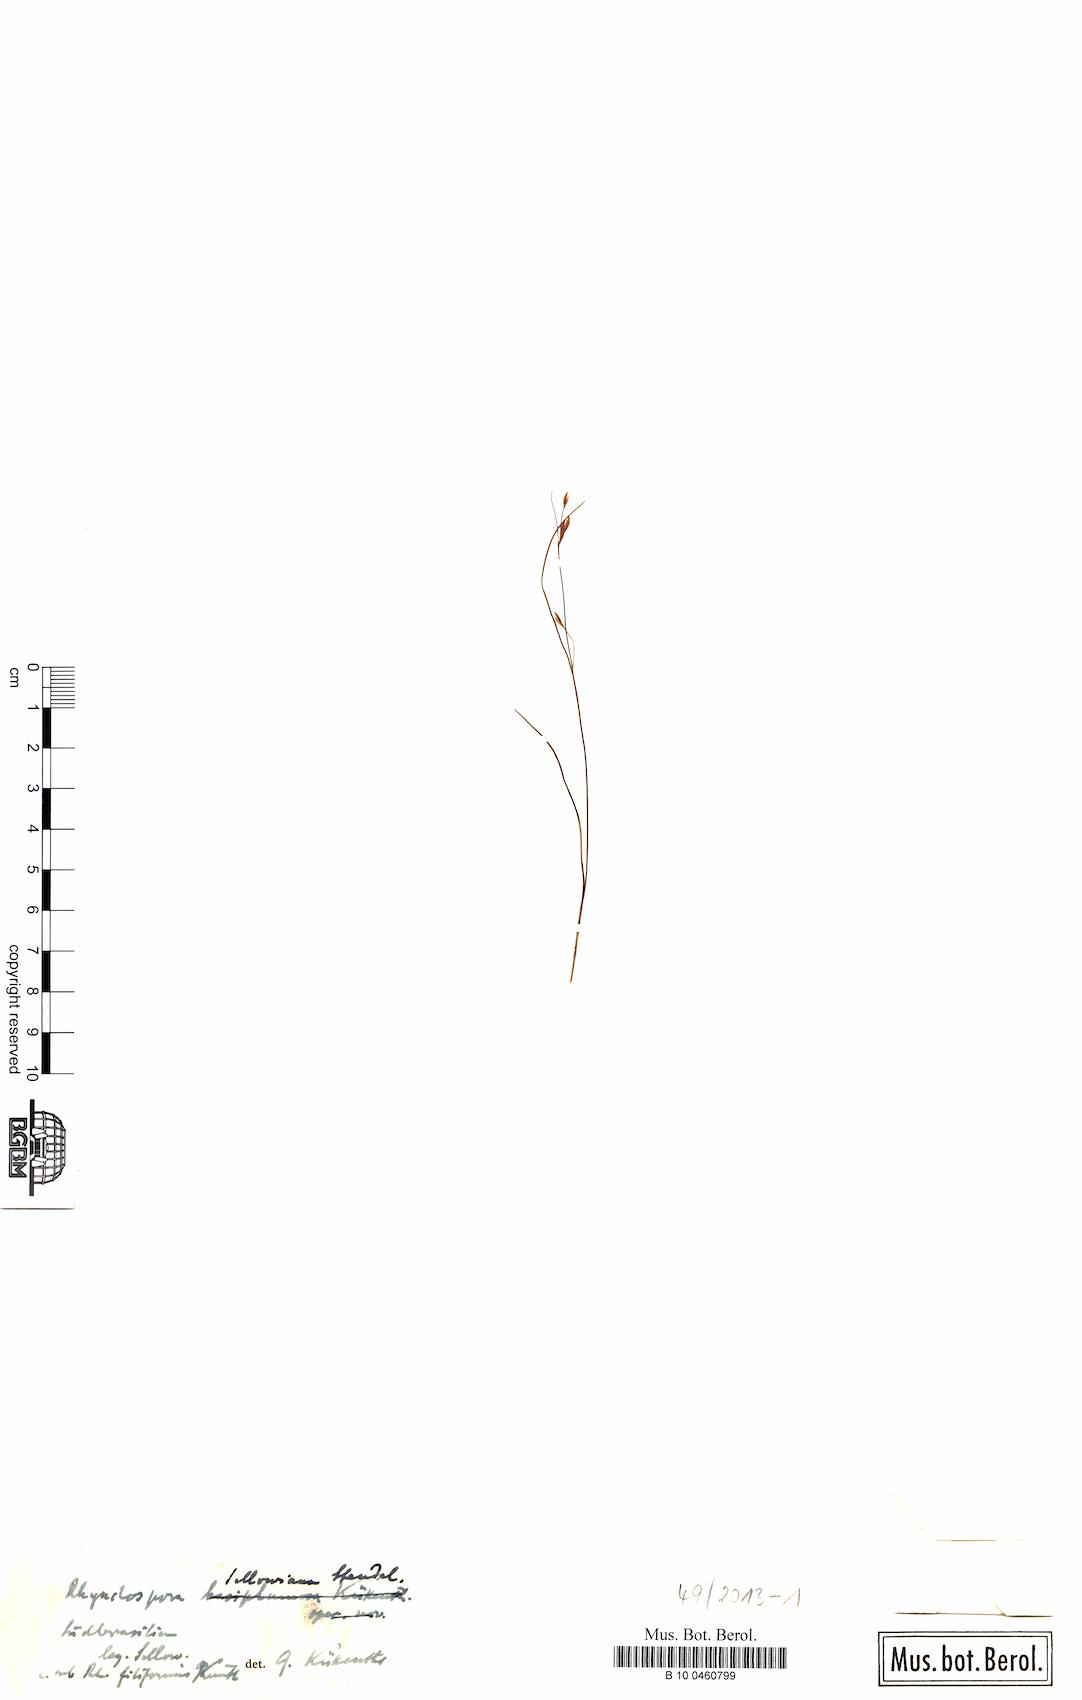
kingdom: Plantae
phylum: Tracheophyta
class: Liliopsida
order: Poales
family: Cyperaceae
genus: Rhynchospora
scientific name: Rhynchospora sellowiana
